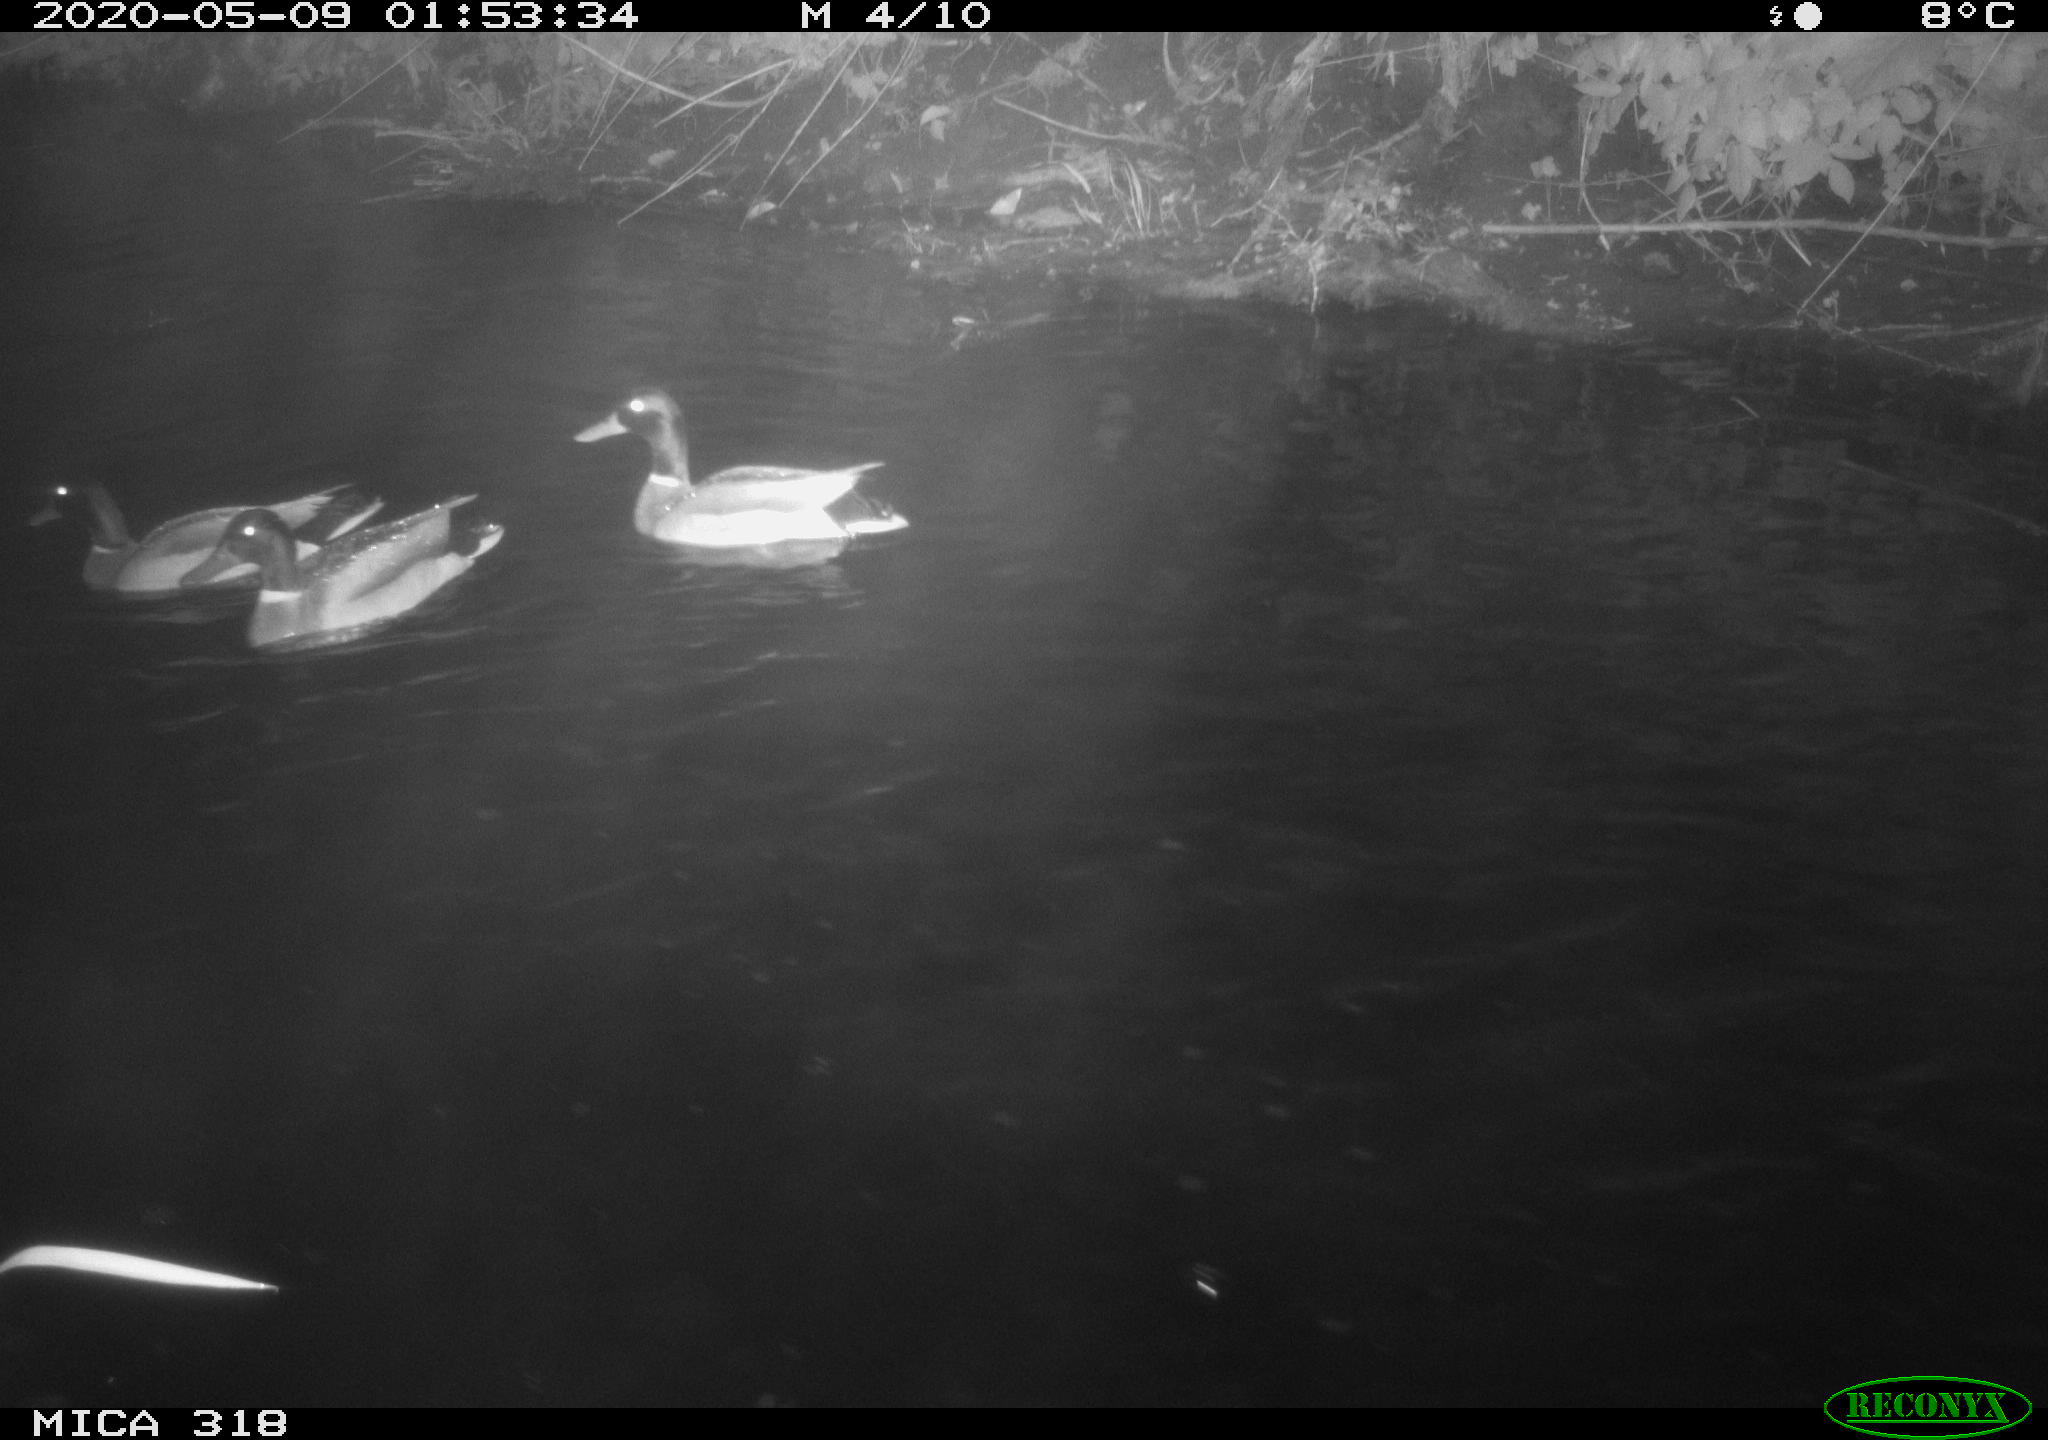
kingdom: Animalia
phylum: Chordata
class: Aves
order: Anseriformes
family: Anatidae
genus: Anas
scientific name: Anas platyrhynchos
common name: Mallard
